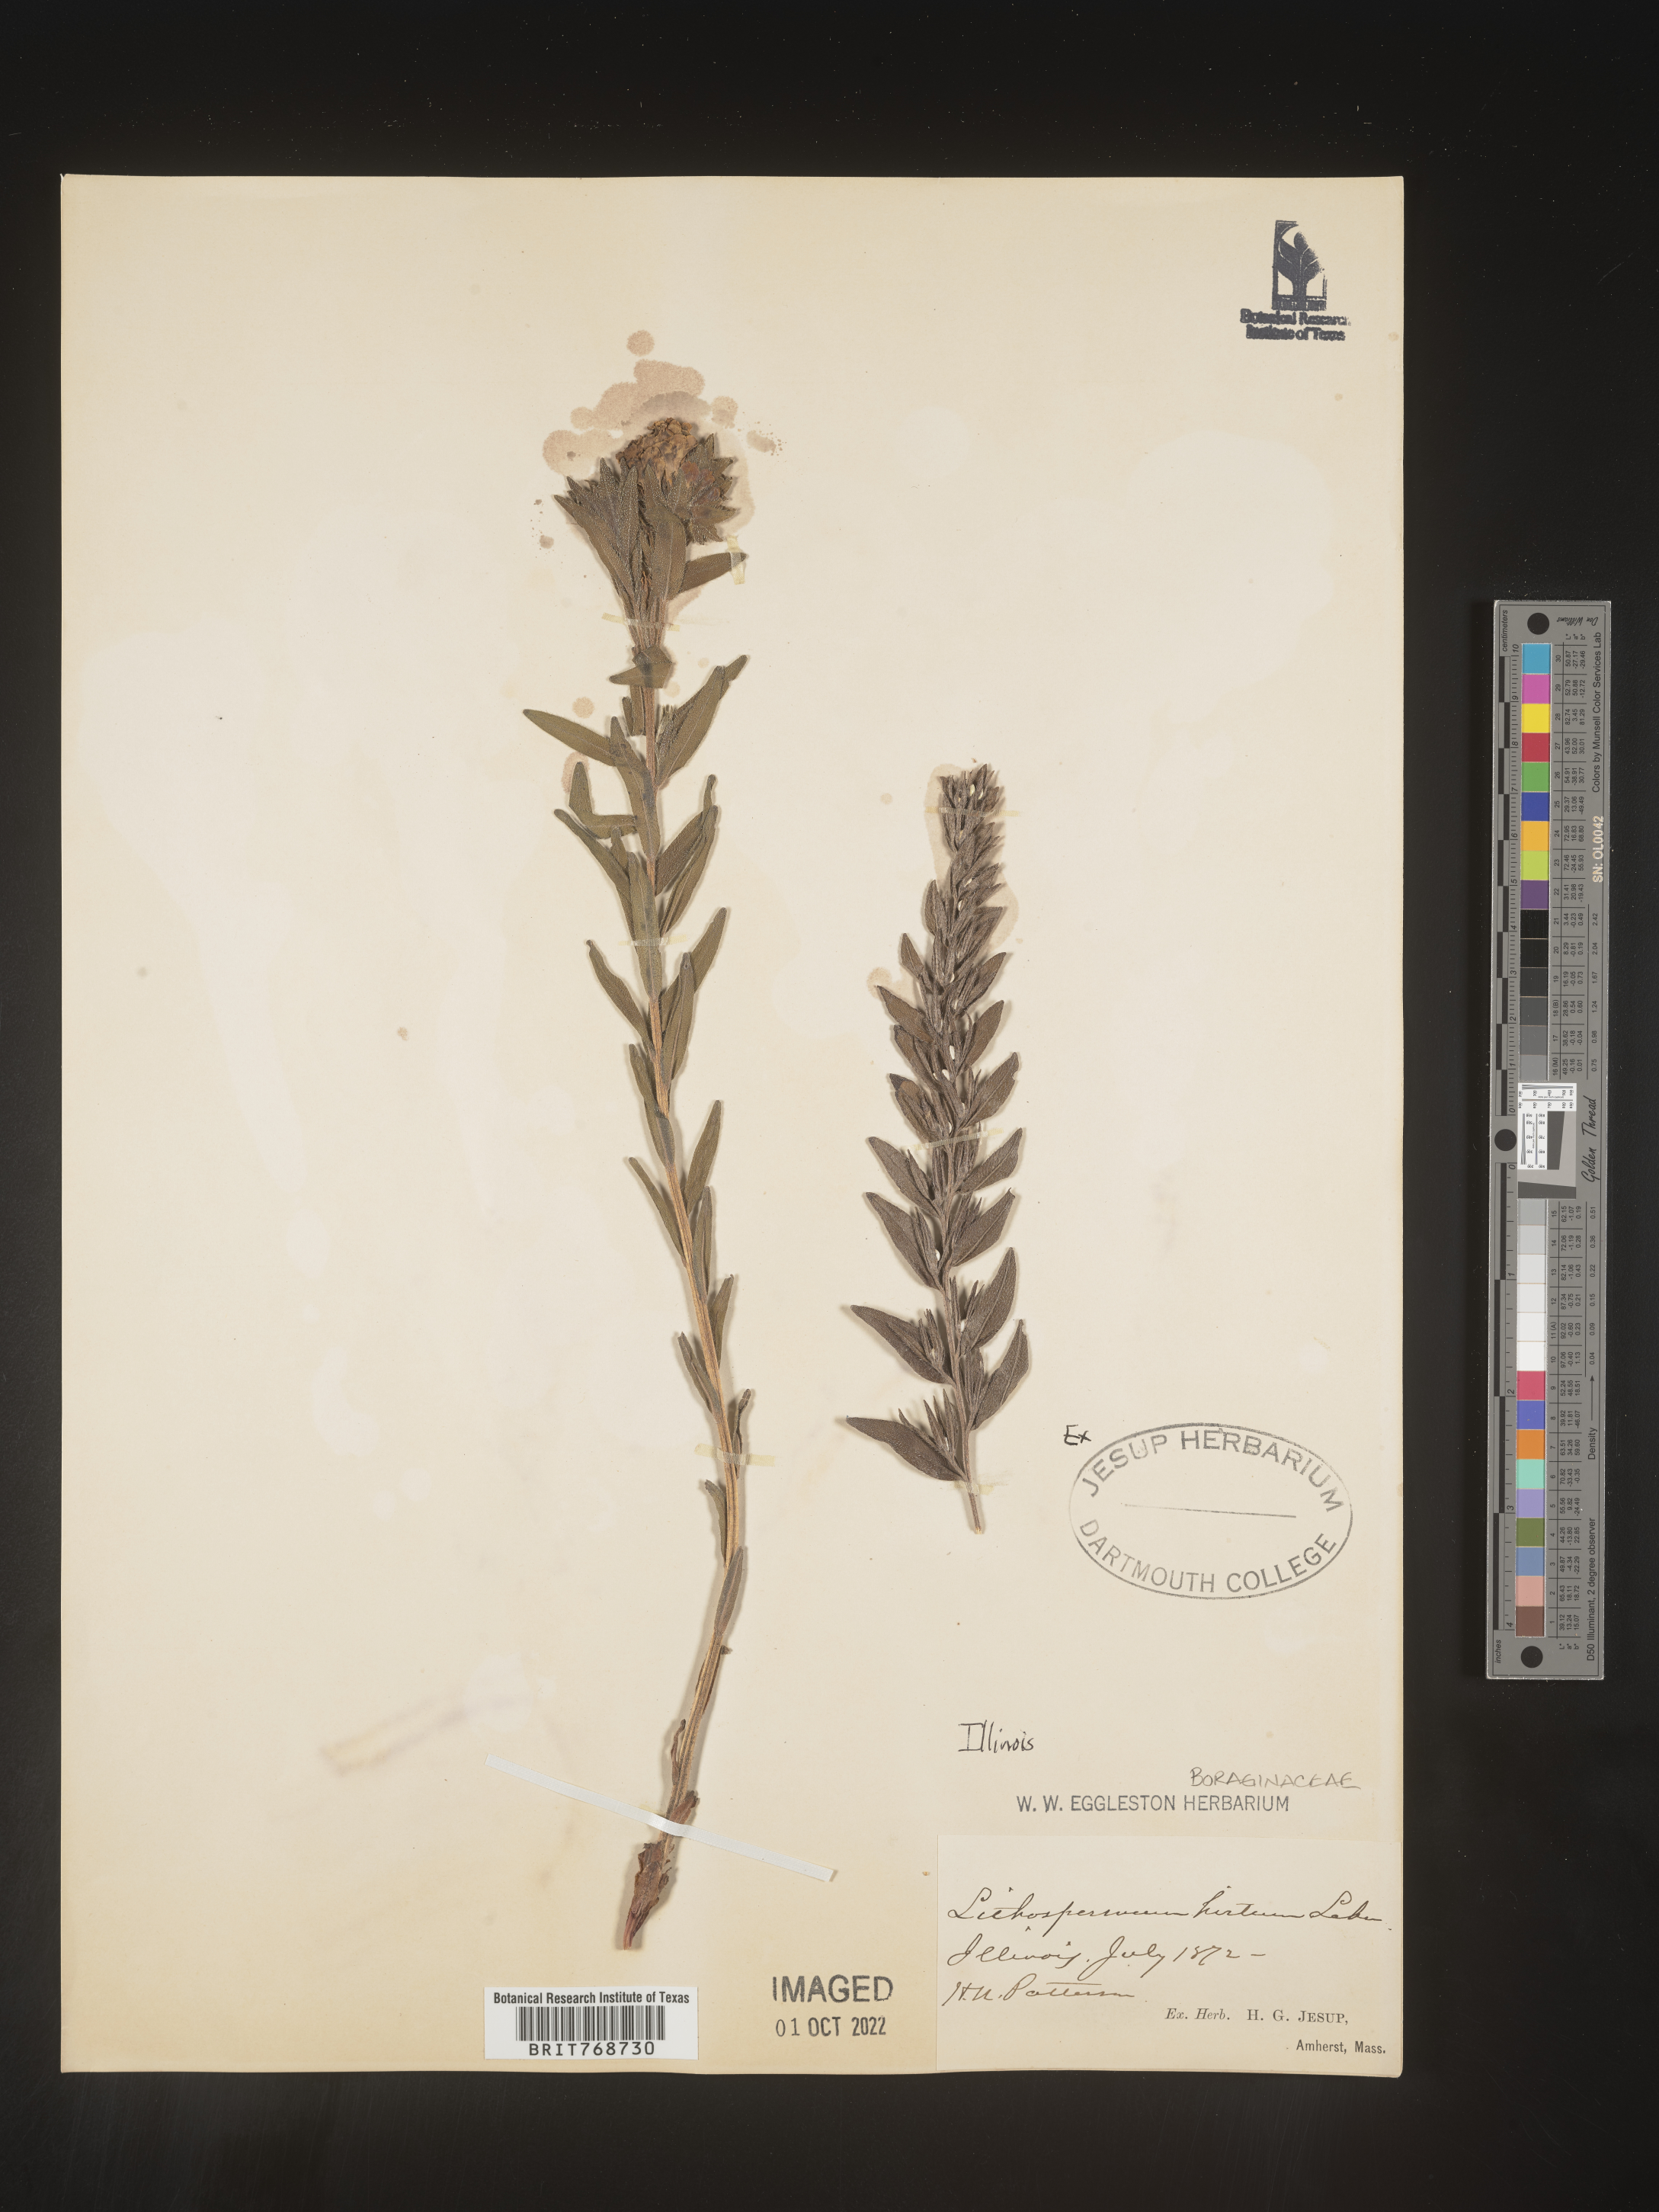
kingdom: Plantae
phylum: Tracheophyta
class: Magnoliopsida
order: Boraginales
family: Boraginaceae
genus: Lithospermum
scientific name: Lithospermum caroliniense
